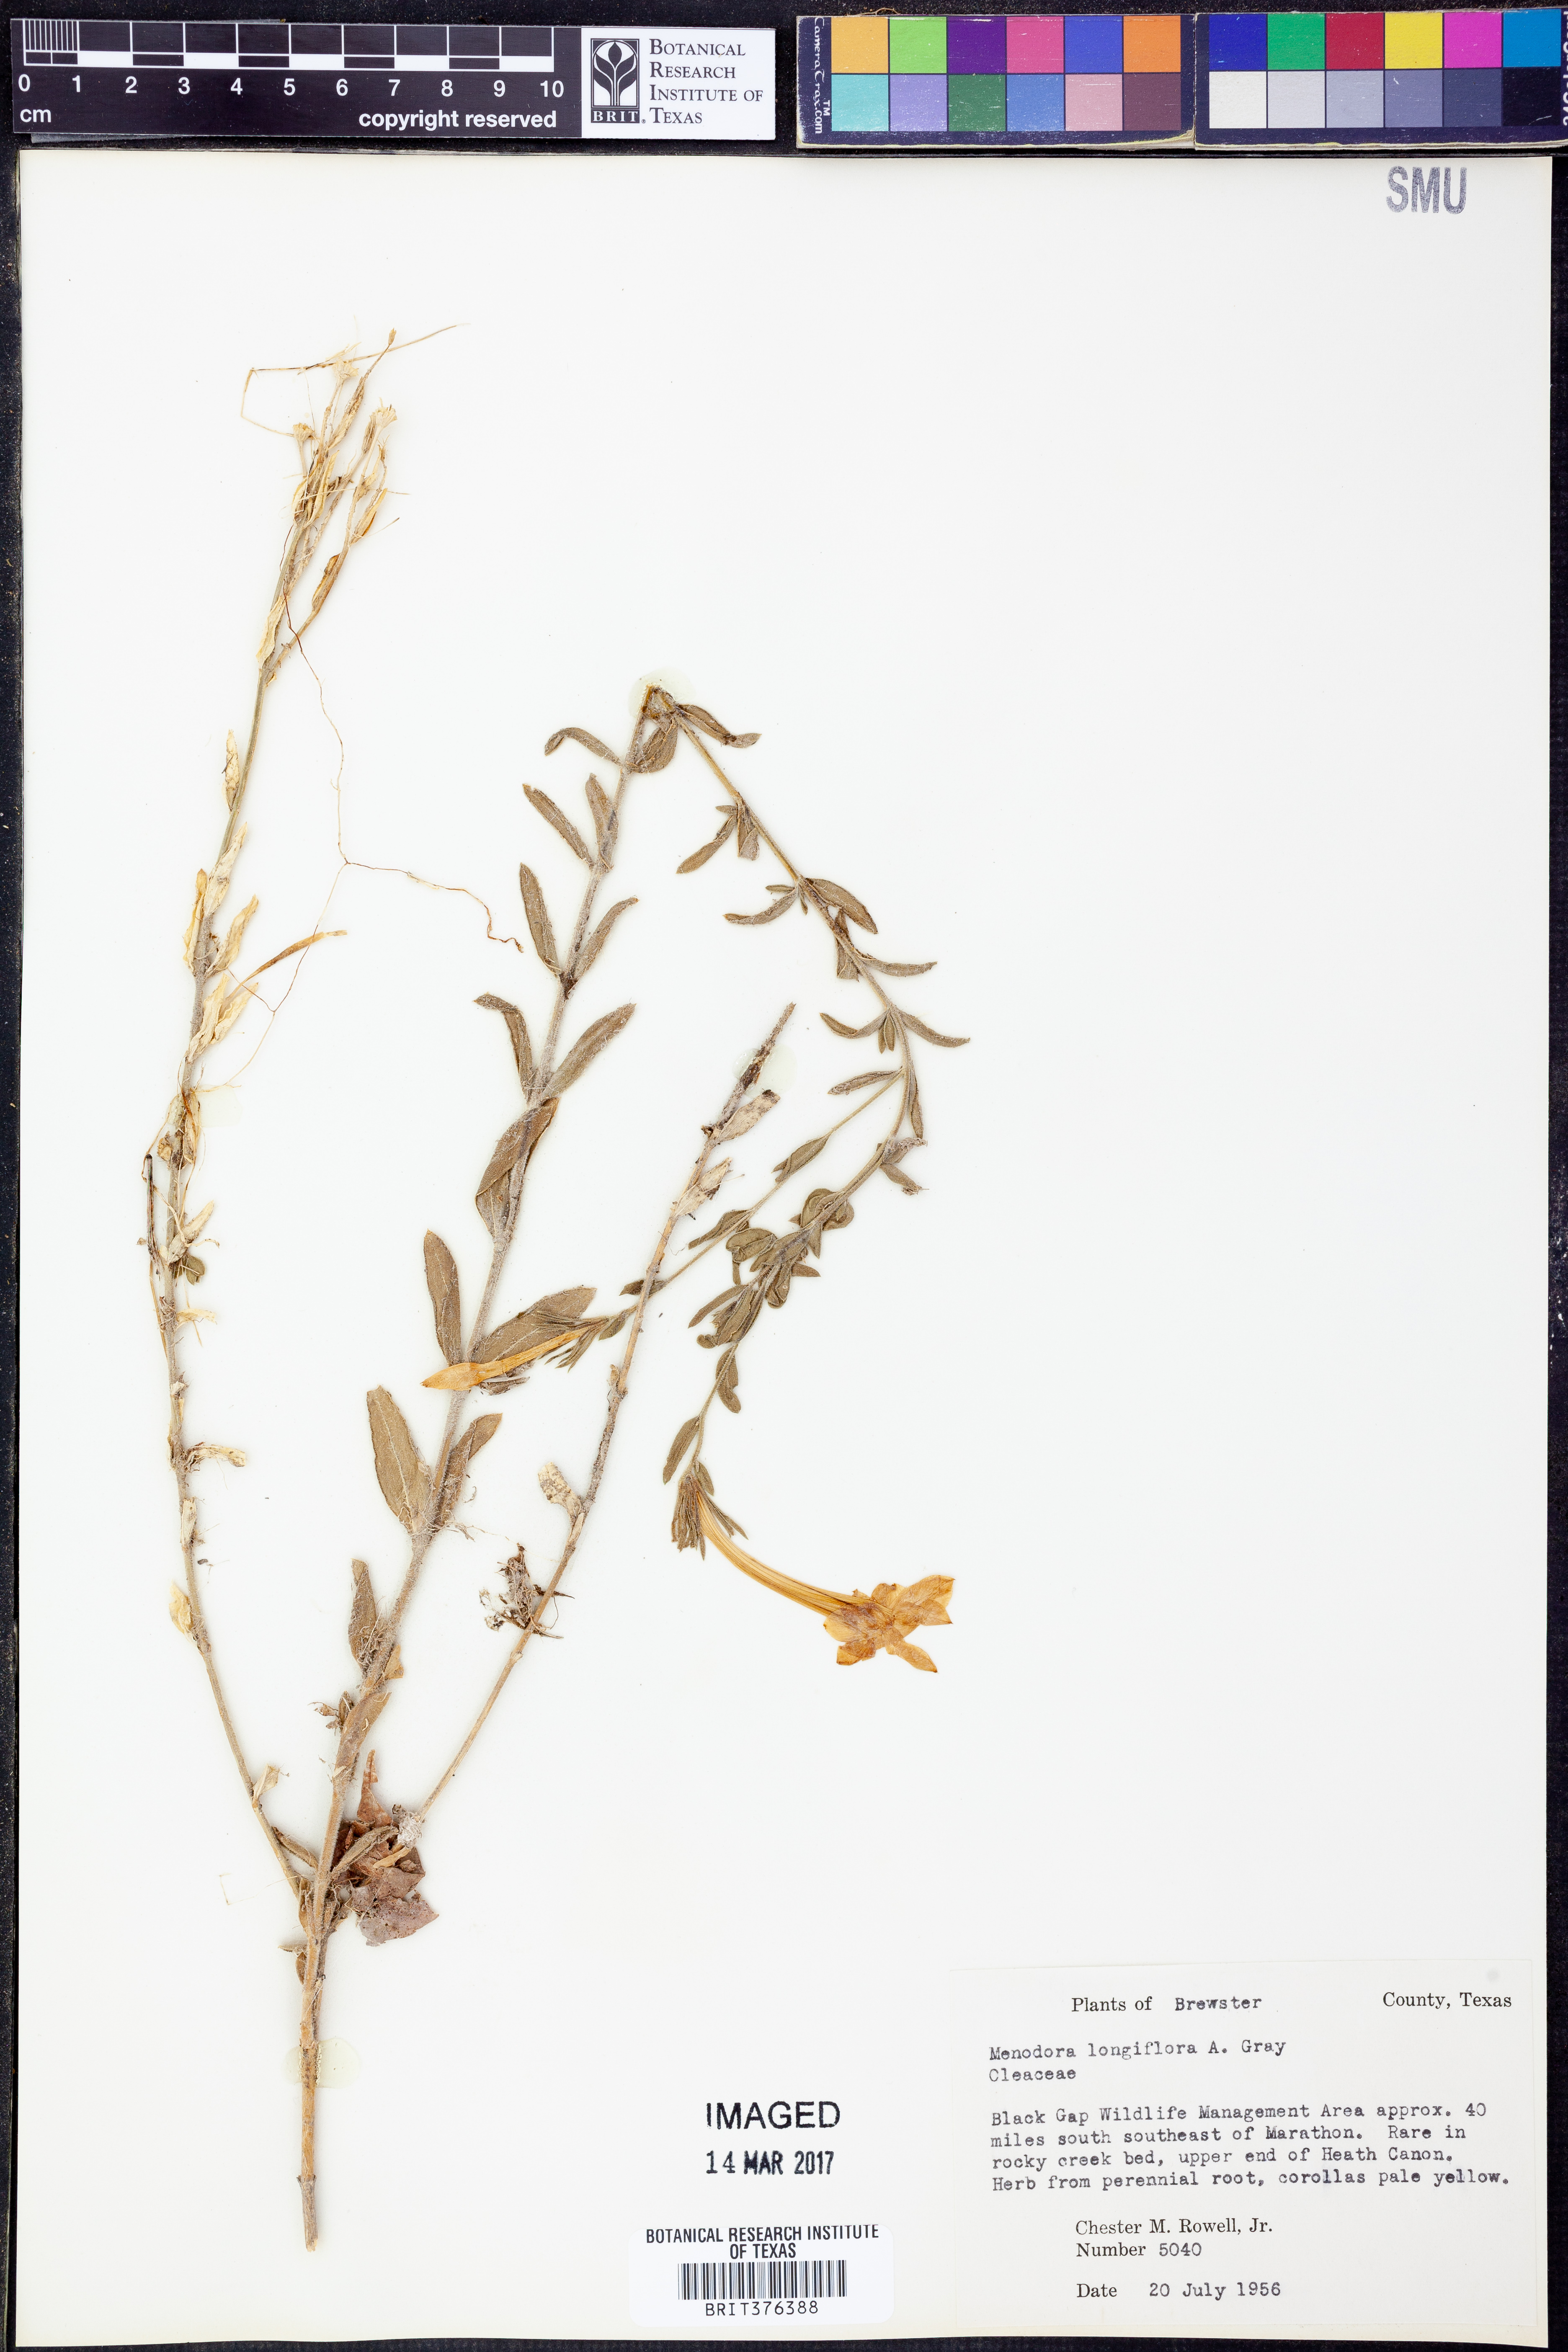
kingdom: Plantae
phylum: Tracheophyta
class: Magnoliopsida
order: Lamiales
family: Oleaceae
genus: Menodora
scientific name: Menodora longiflora
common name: Showy menodora
